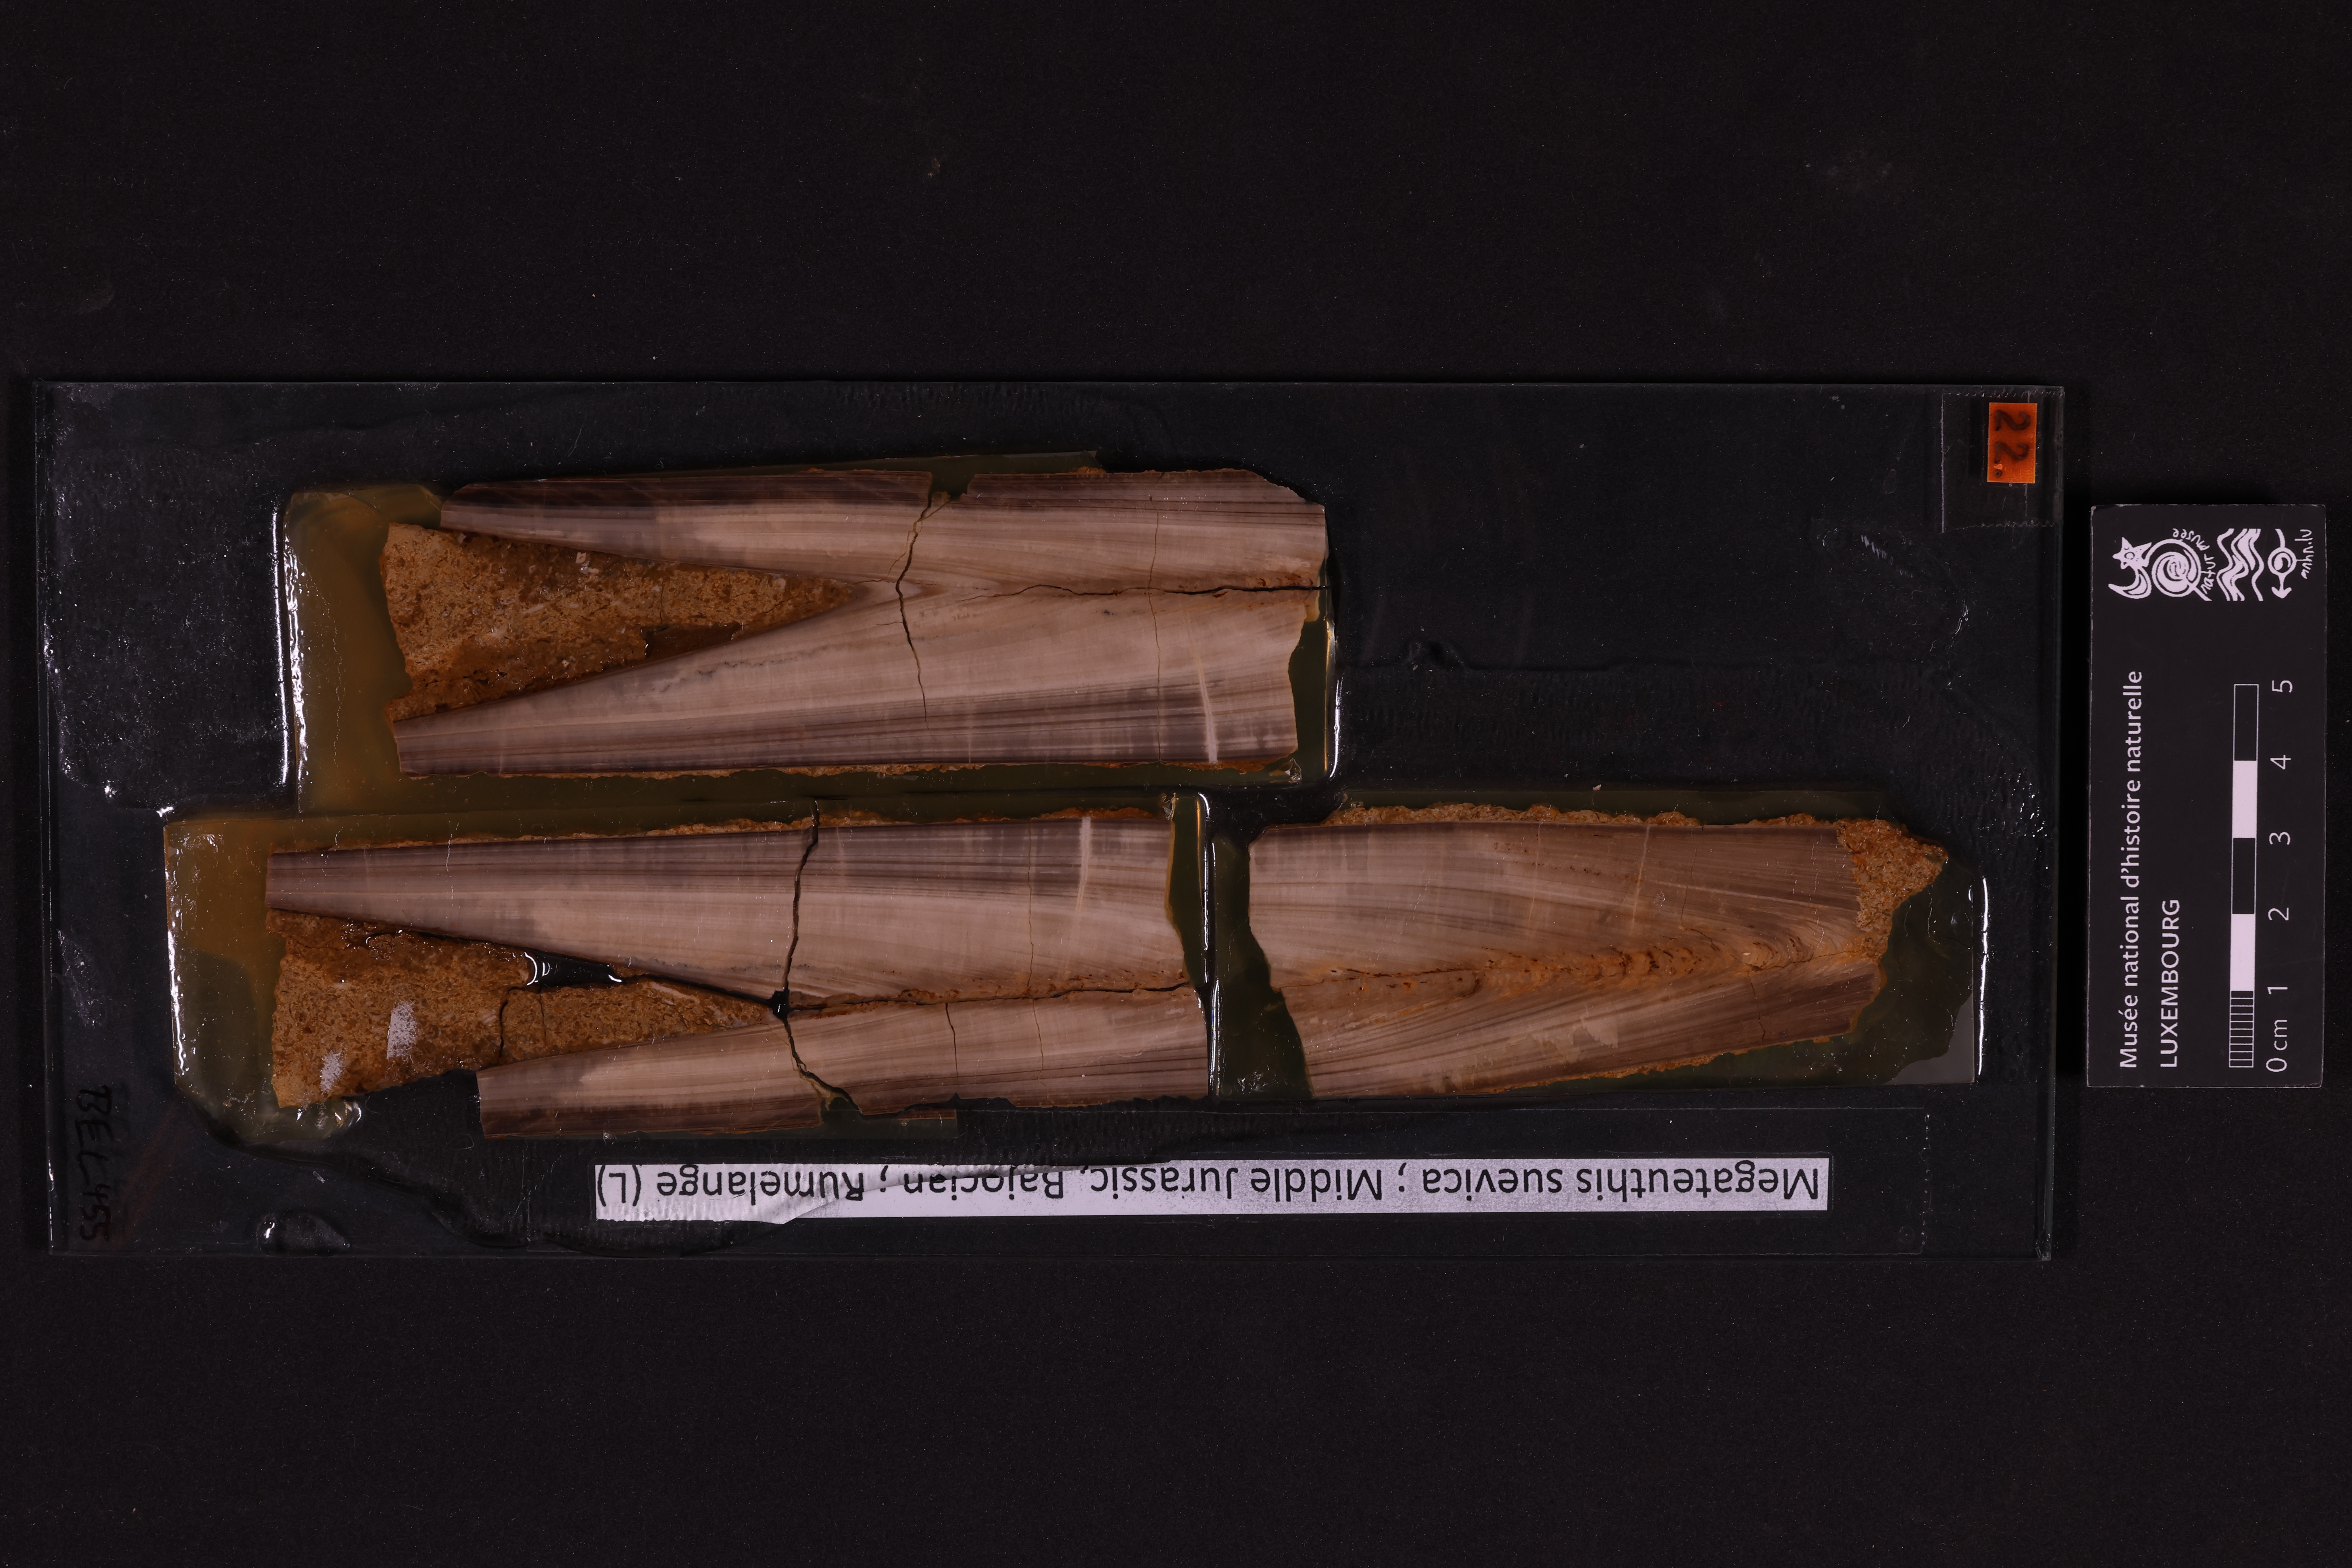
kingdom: Animalia
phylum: Mollusca
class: Cephalopoda
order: Belemnitida
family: Megateuthididae
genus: Megateuthis
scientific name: Megateuthis
